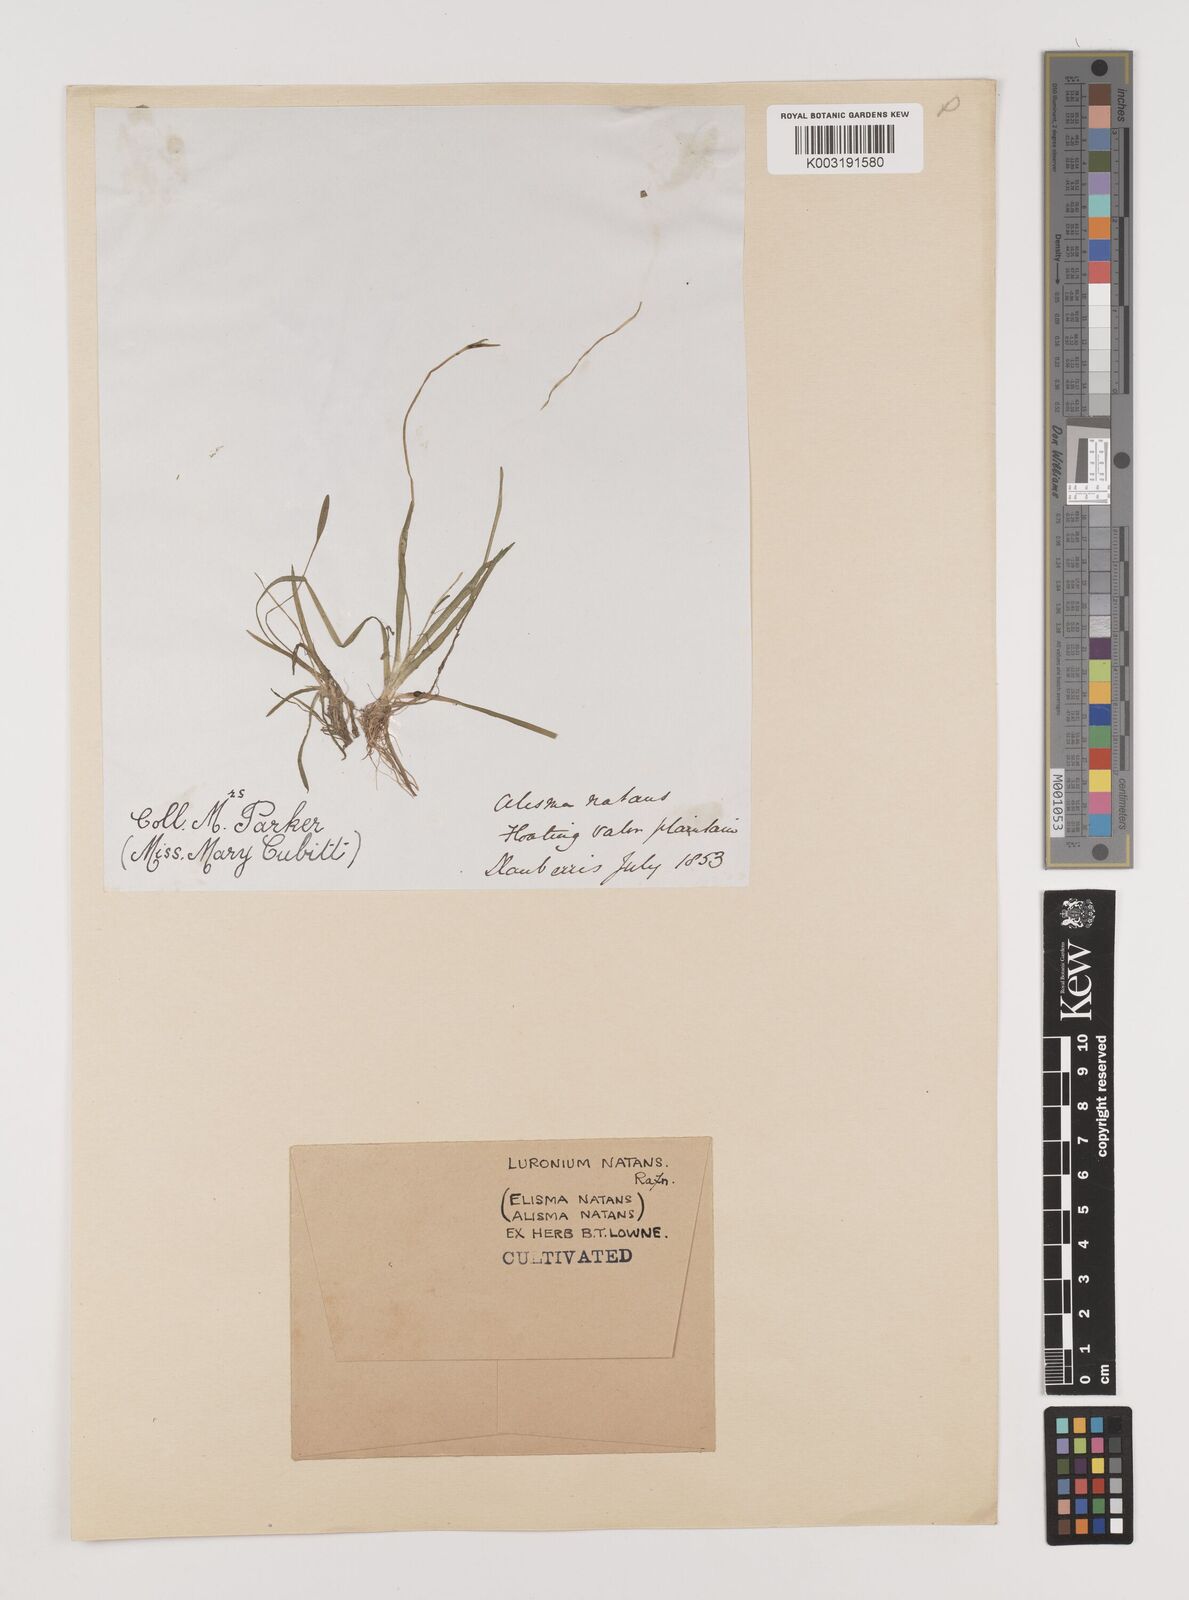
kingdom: Plantae
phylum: Tracheophyta
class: Liliopsida
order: Alismatales
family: Alismataceae
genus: Luronium
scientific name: Luronium natans
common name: Floating water-plantain
